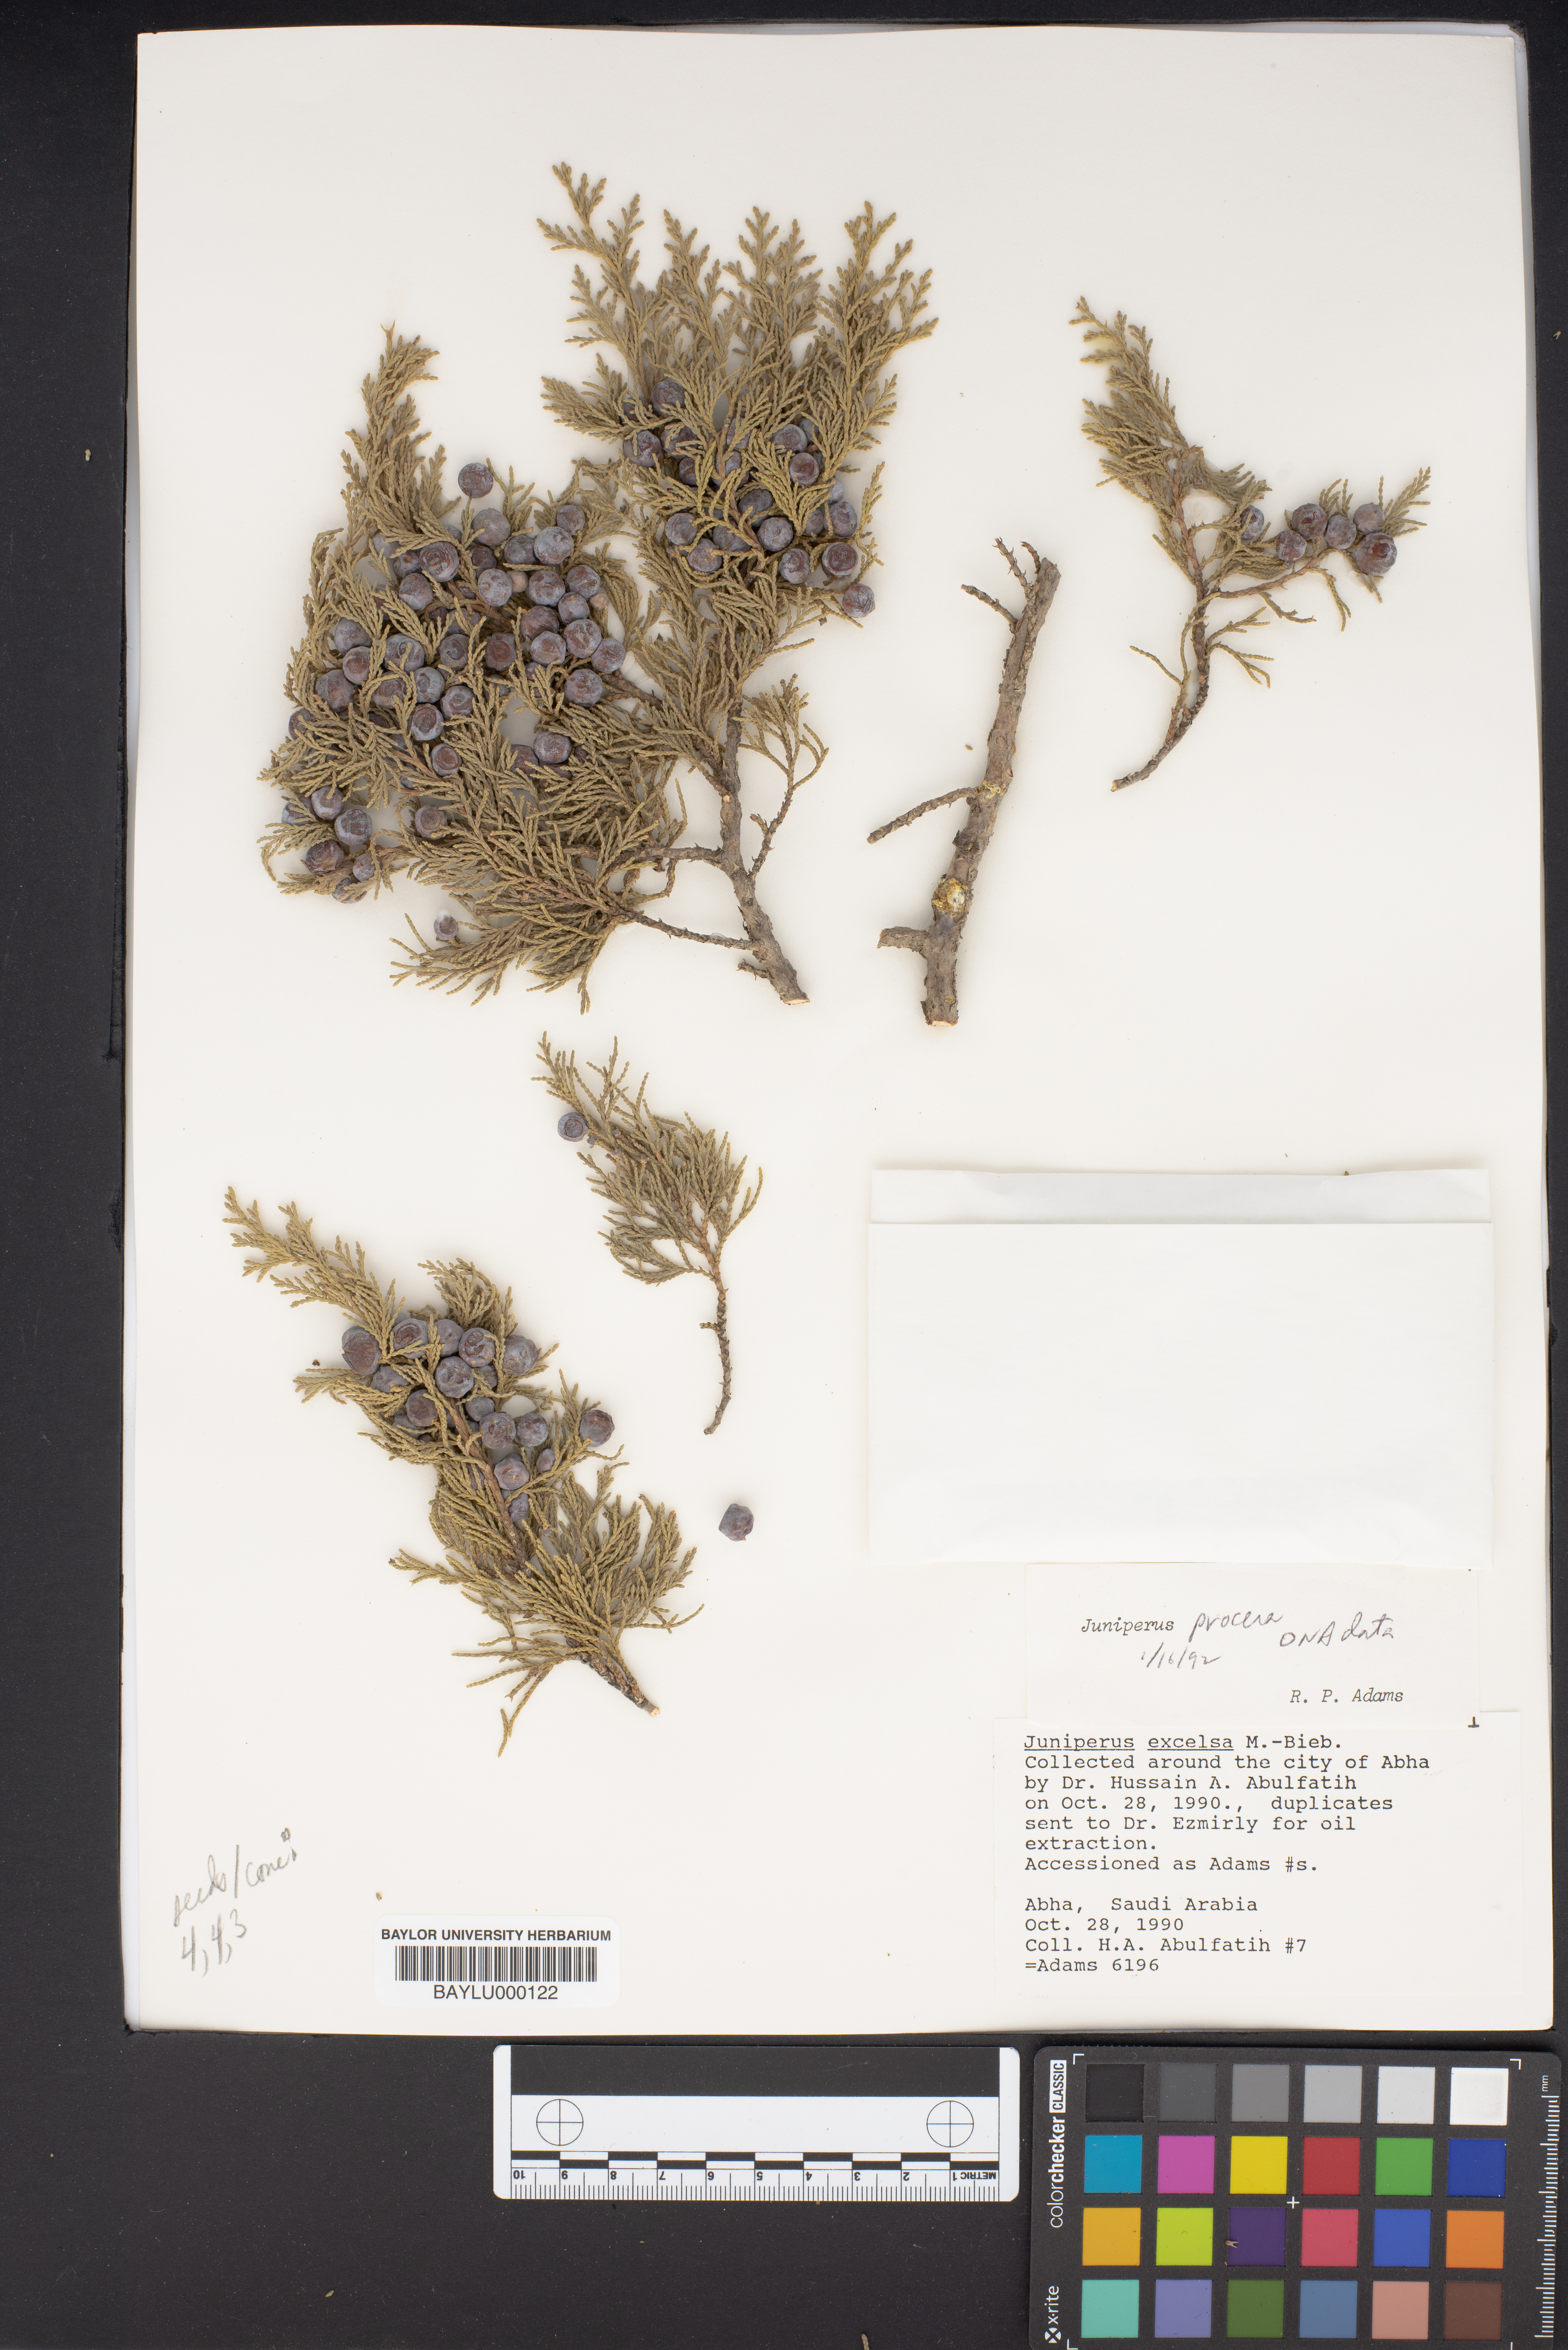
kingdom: Plantae
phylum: Tracheophyta
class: Pinopsida
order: Pinales
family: Cupressaceae
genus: Juniperus
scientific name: Juniperus excelsa
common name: Crimean juniper
